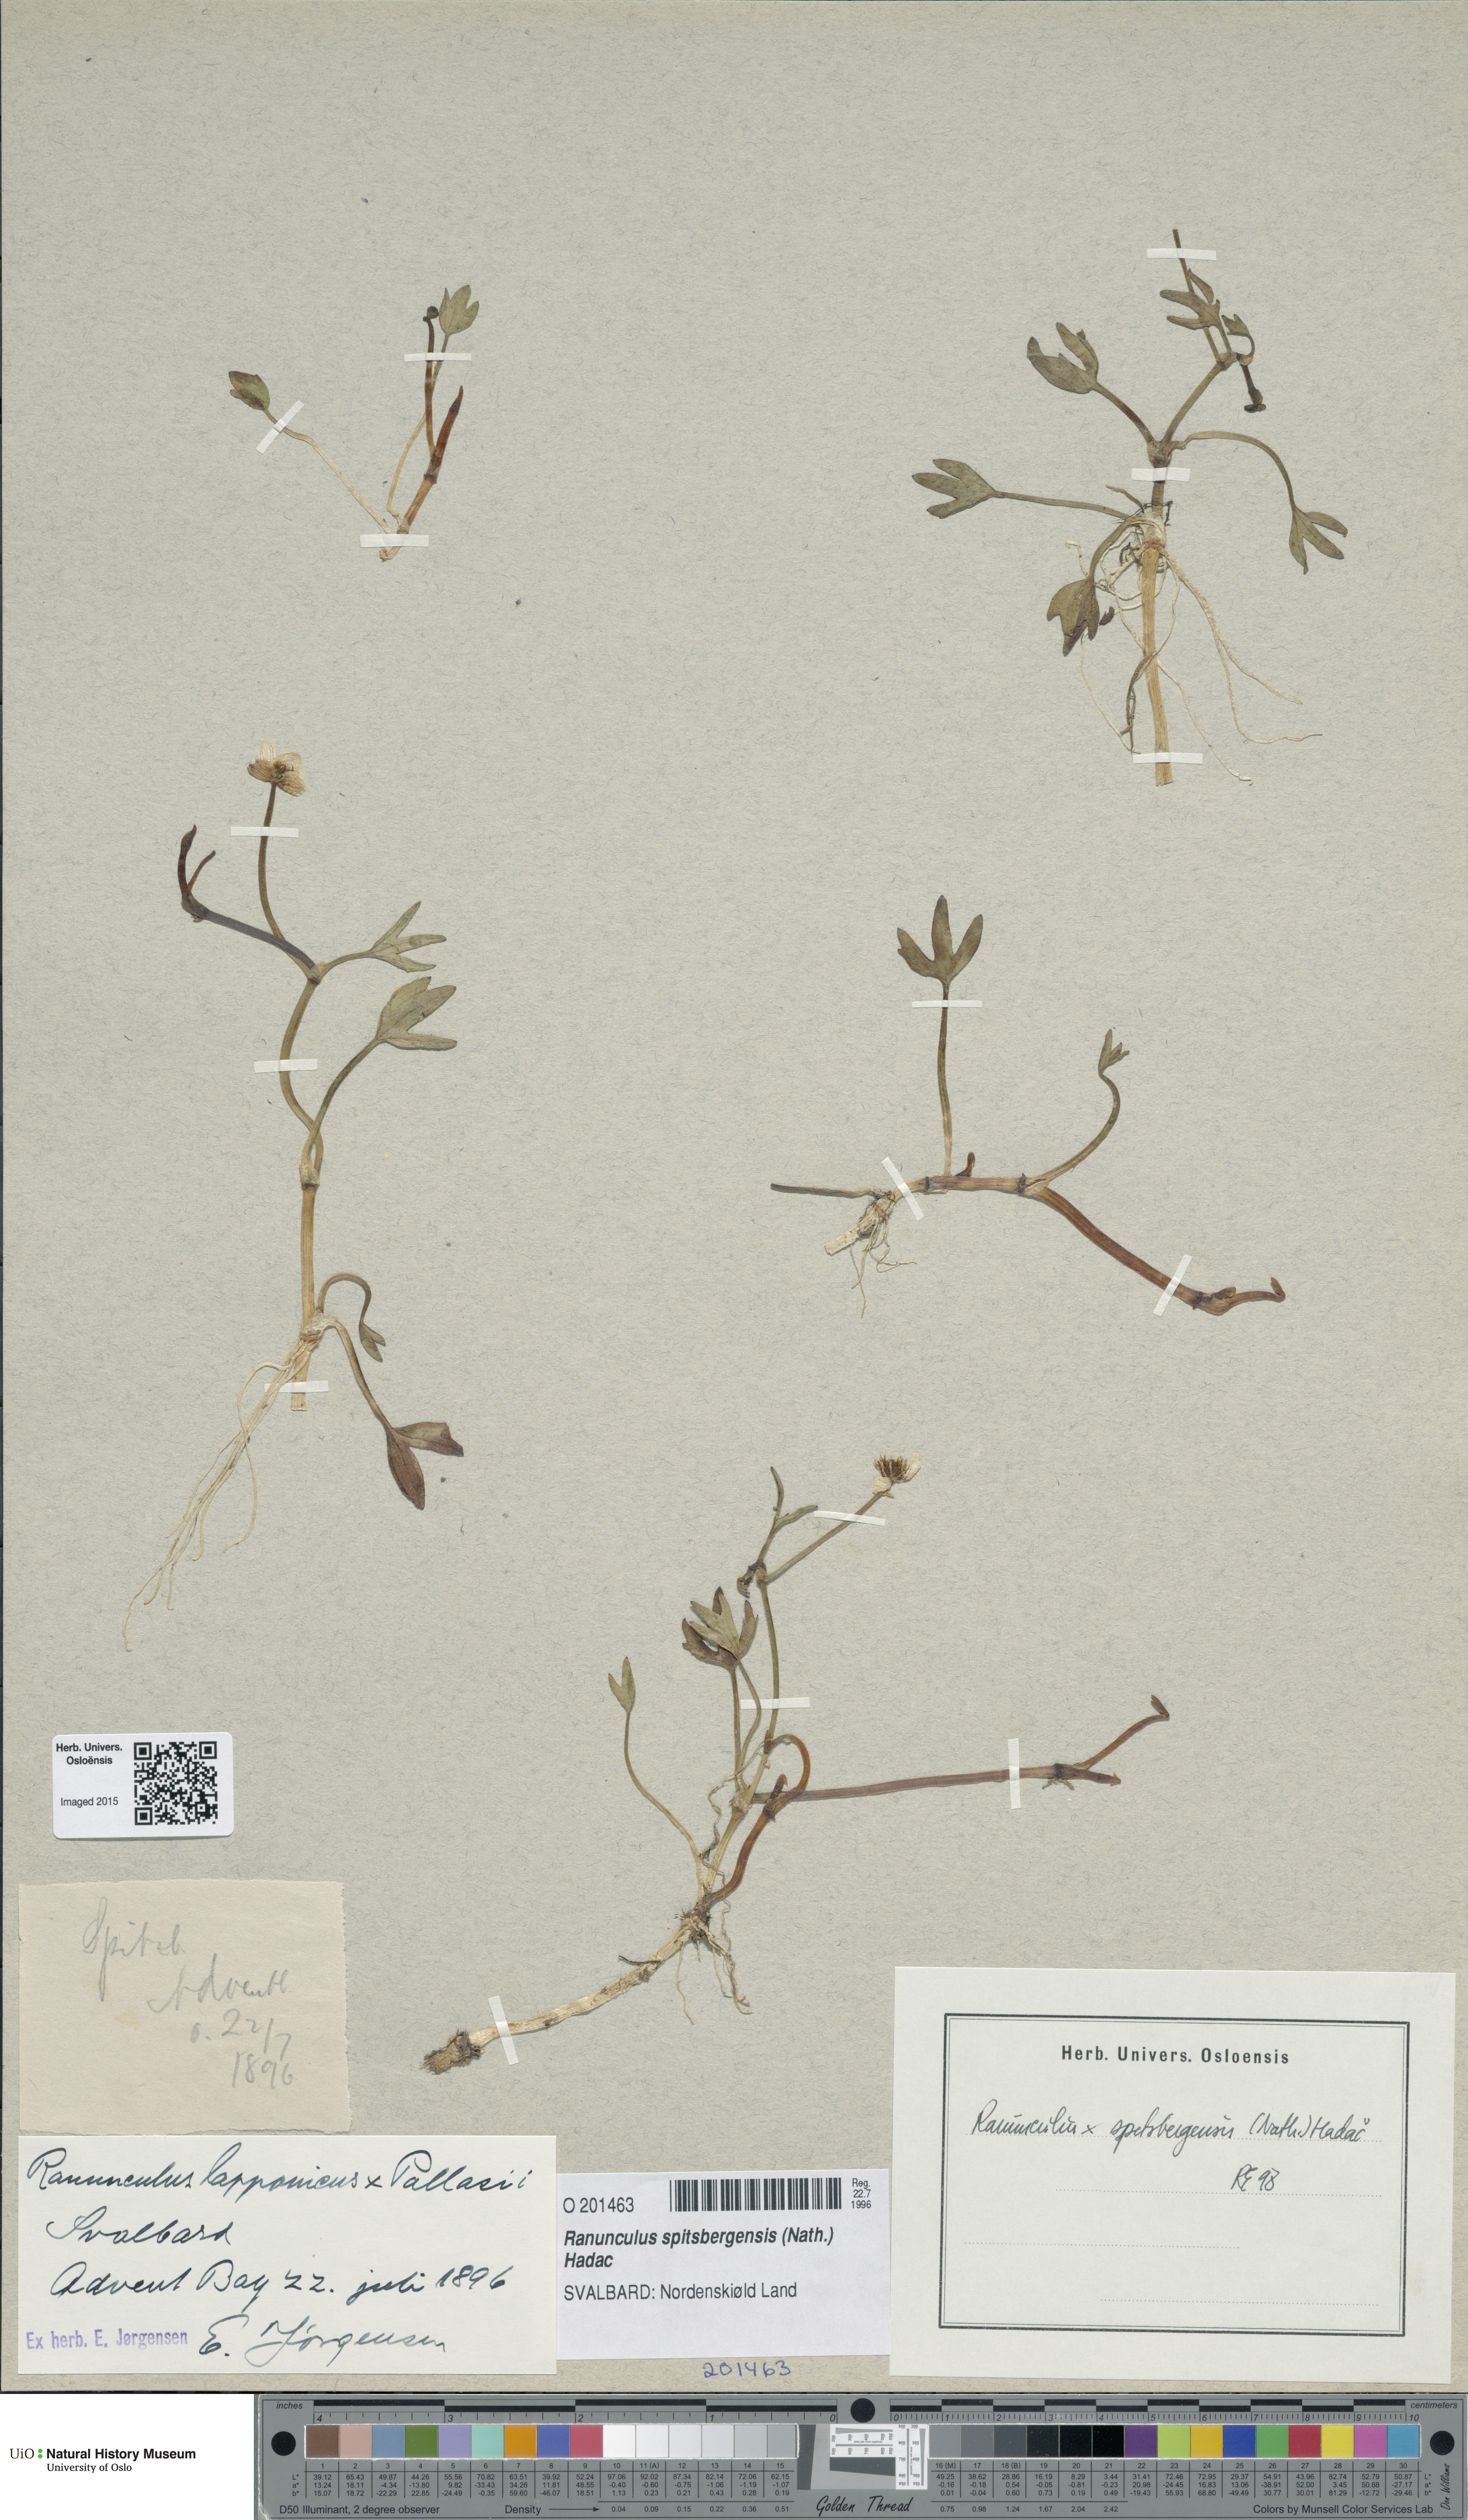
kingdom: Plantae
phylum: Tracheophyta
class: Magnoliopsida
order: Ranunculales
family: Ranunculaceae
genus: Coptidium
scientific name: Coptidium spitsbergense
